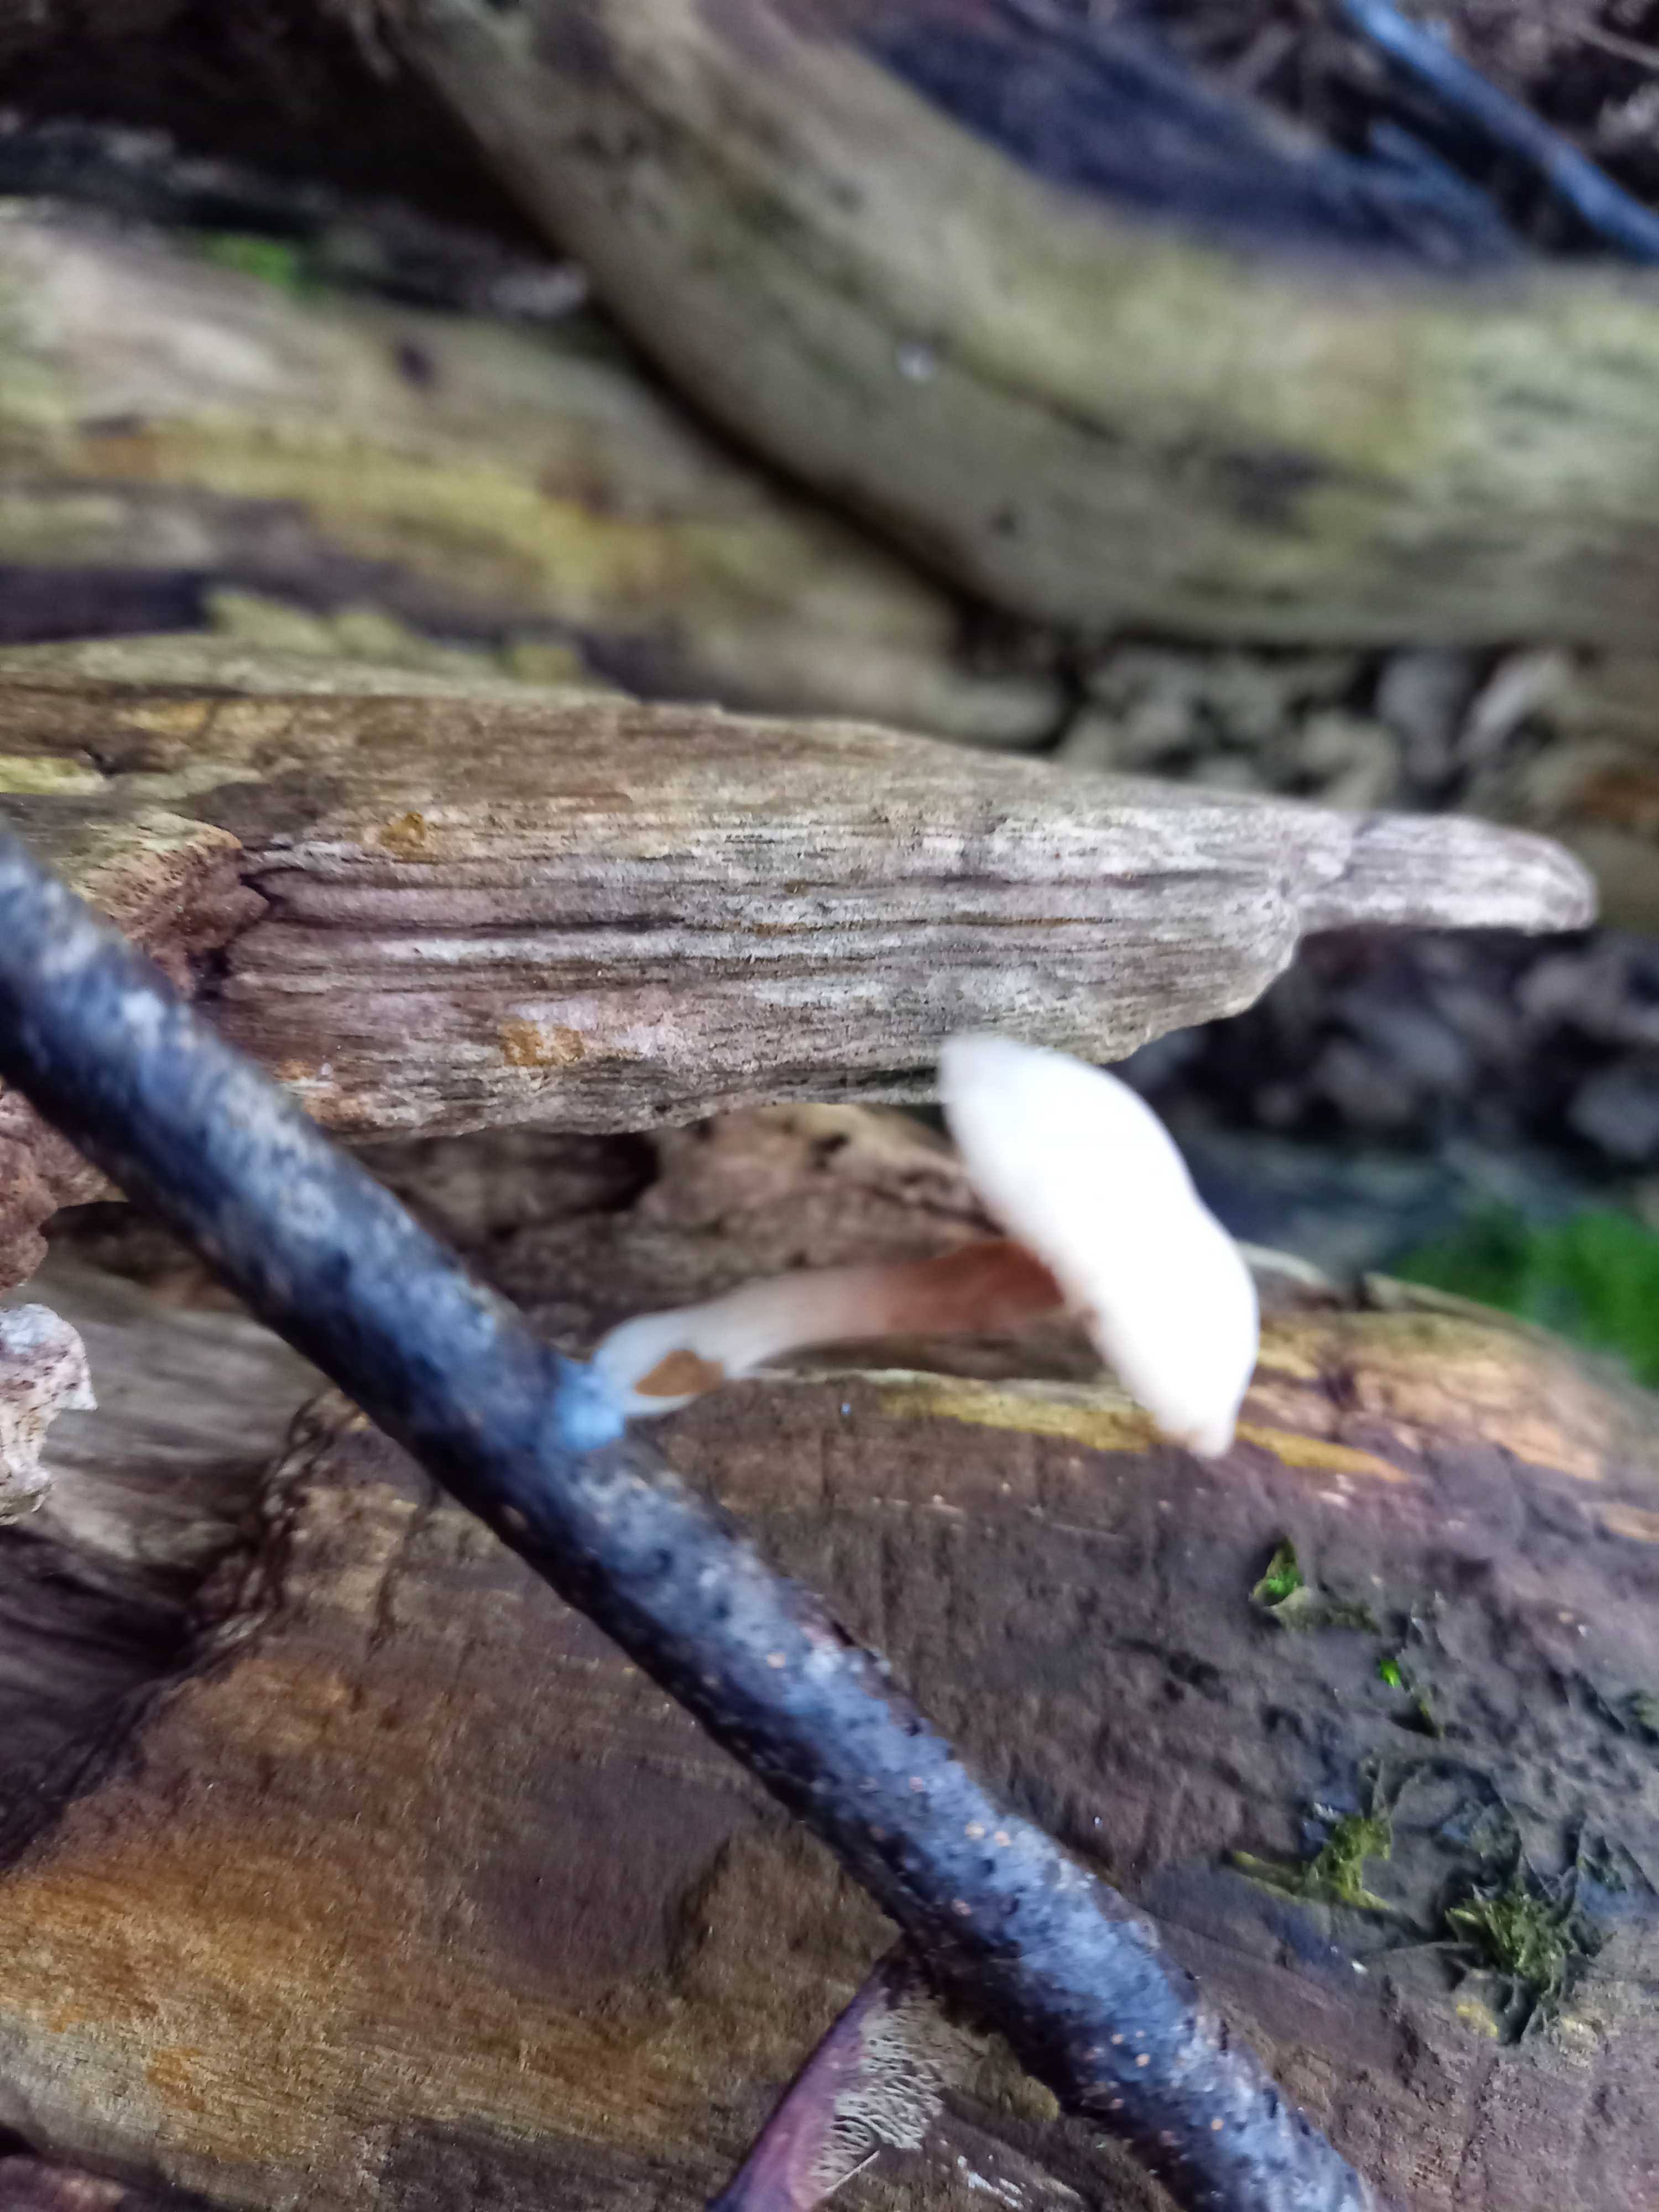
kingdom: Fungi
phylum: Basidiomycota
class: Agaricomycetes
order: Agaricales
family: Tubariaceae
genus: Tubaria
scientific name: Tubaria furfuracea
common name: kliddet fnughat
